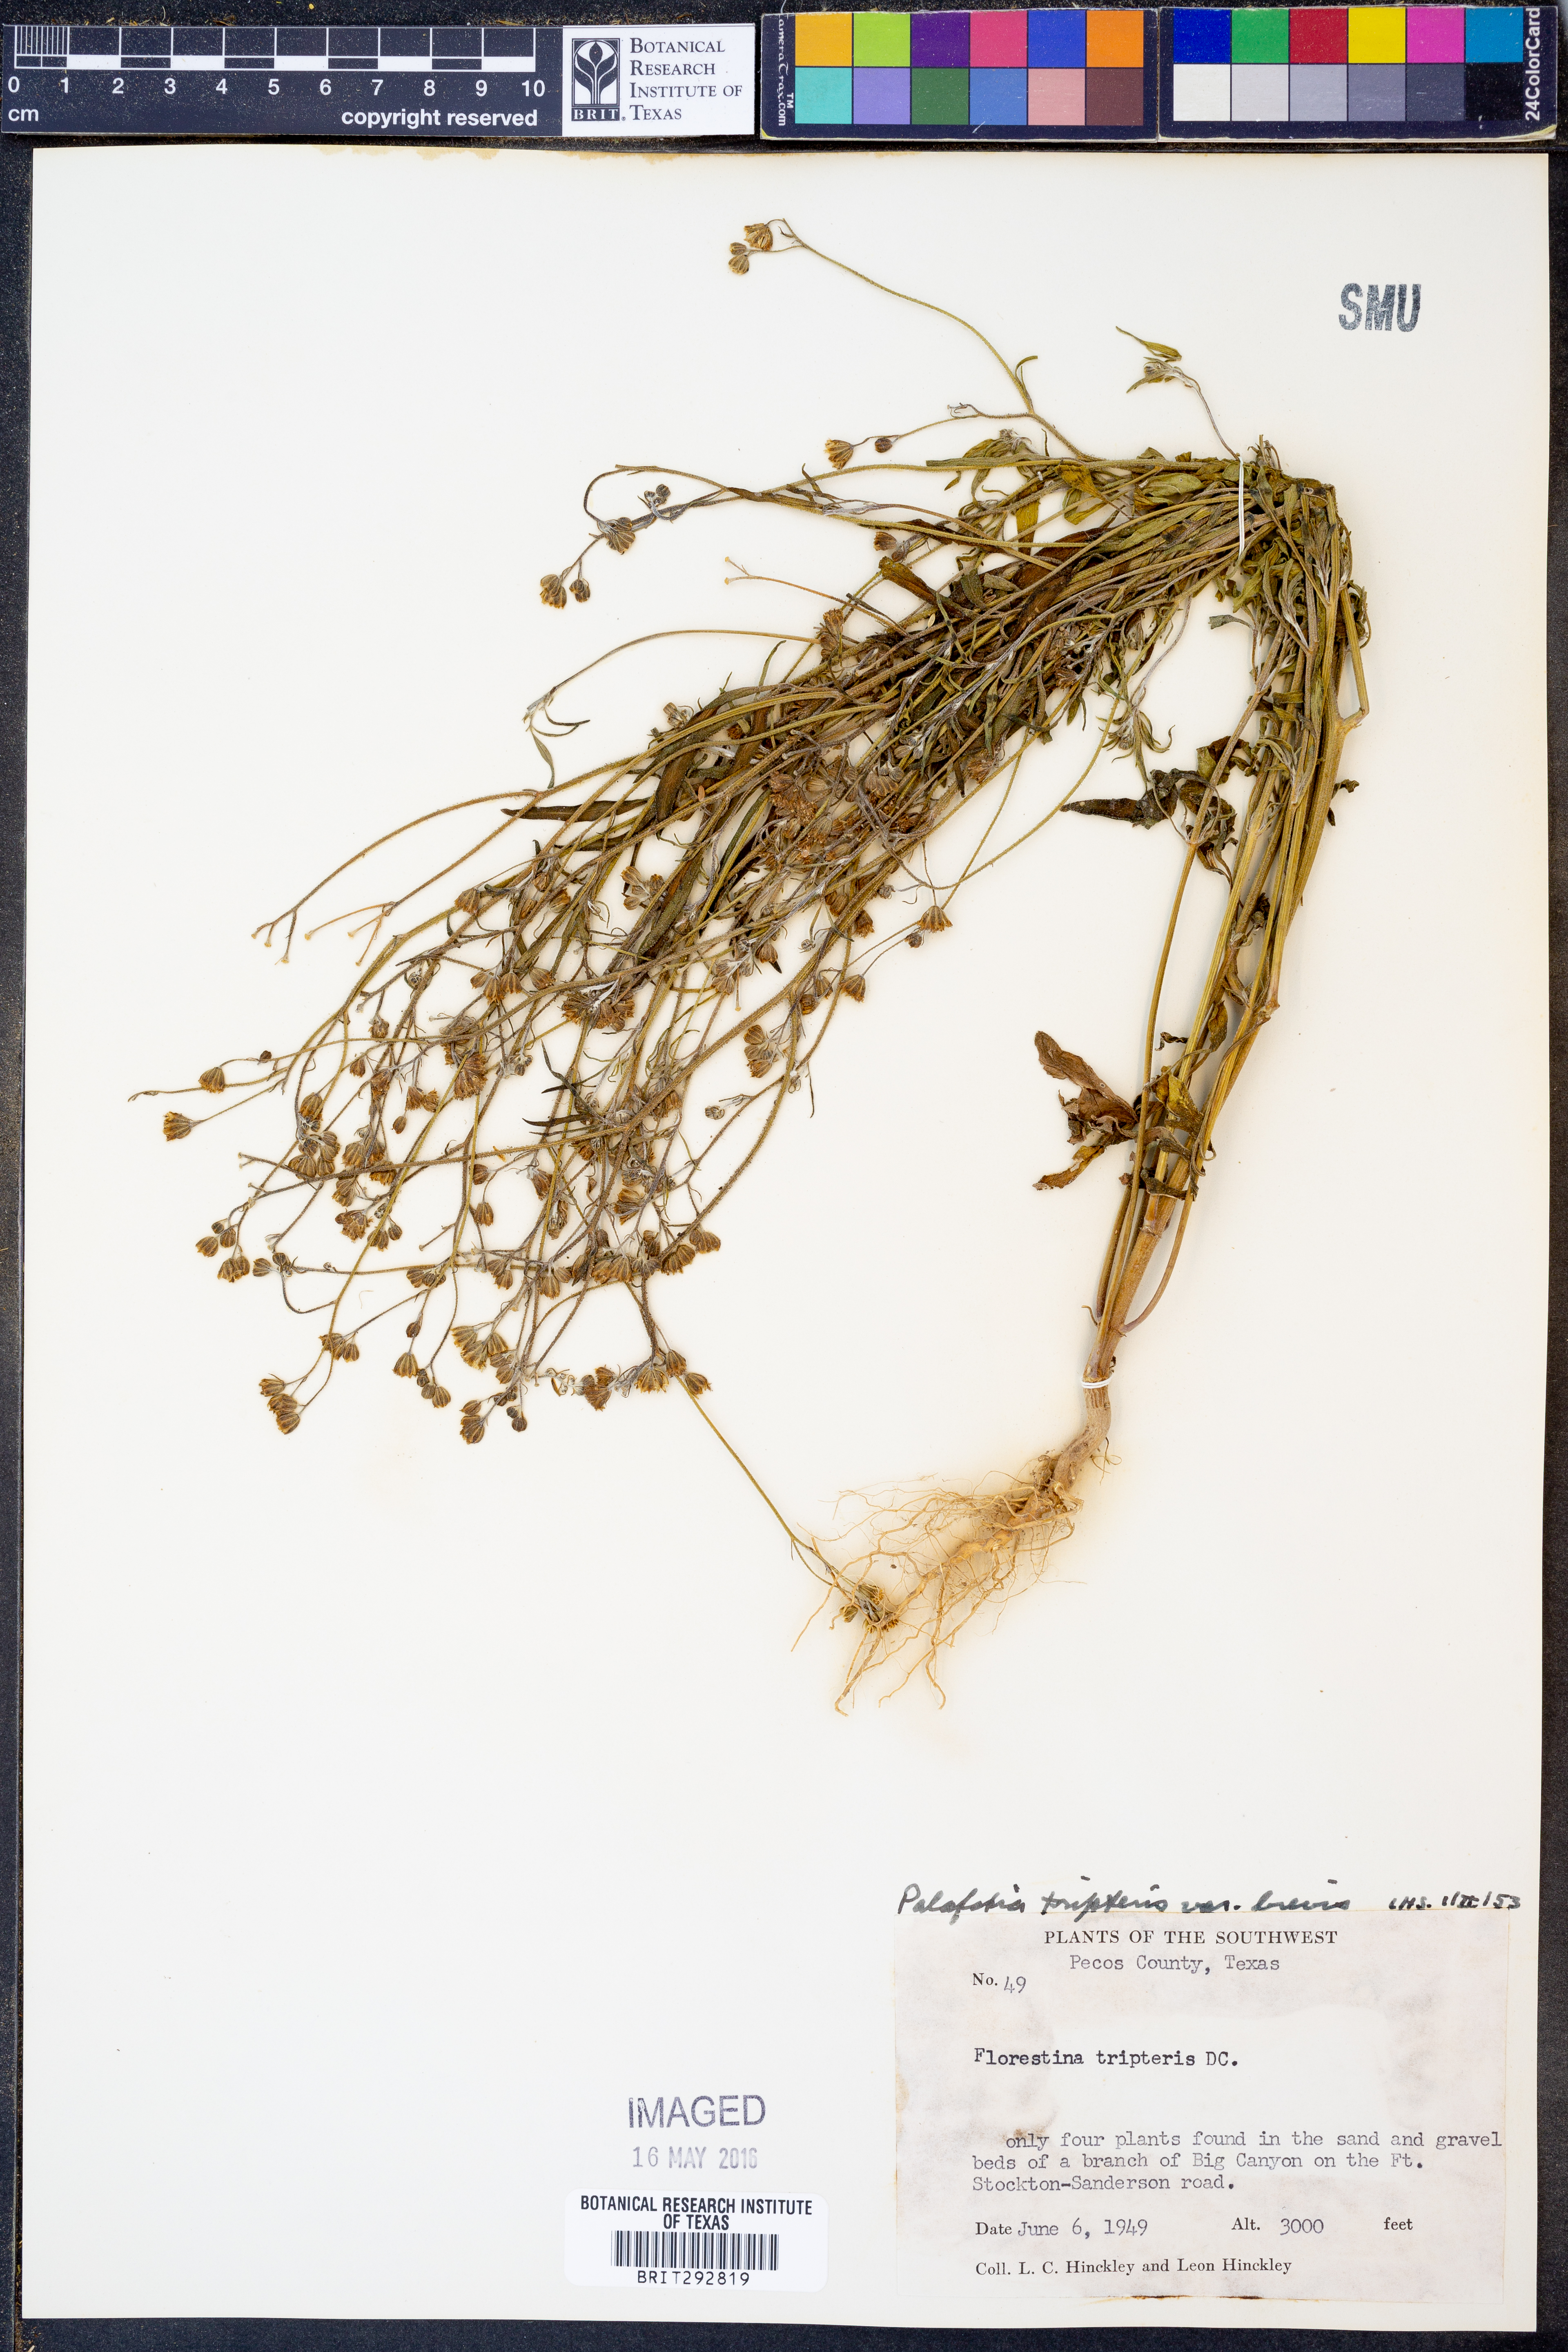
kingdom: Plantae
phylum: Tracheophyta
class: Magnoliopsida
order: Asterales
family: Asteraceae
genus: Florestina
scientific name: Florestina tripteris
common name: Sticky florestina
